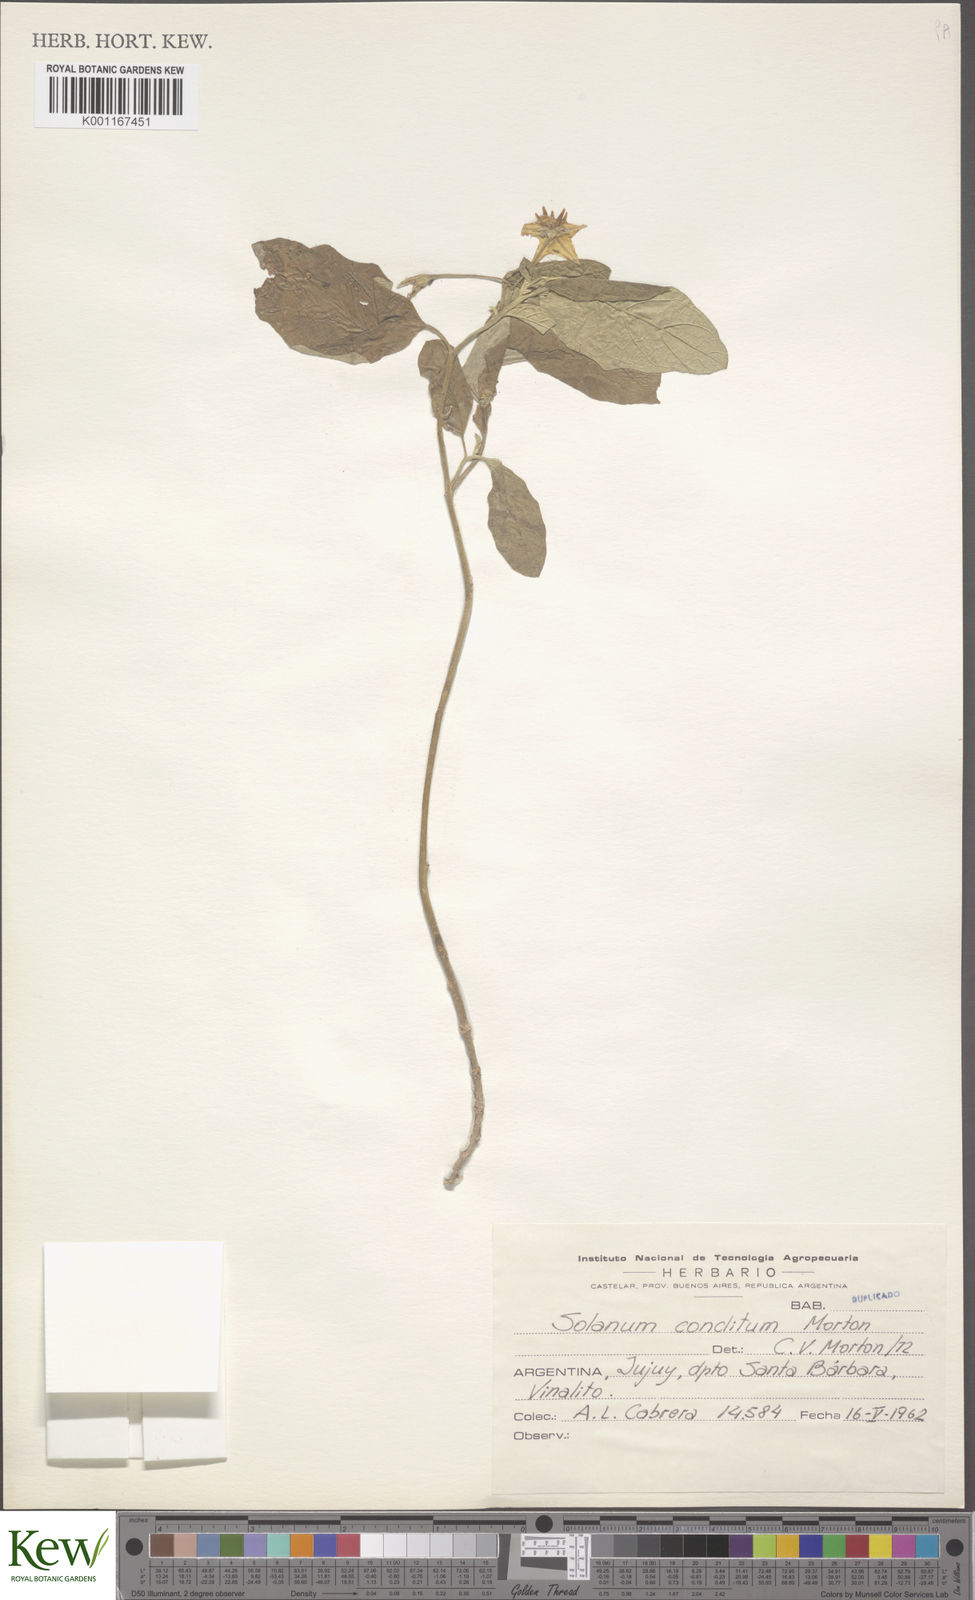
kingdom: Plantae
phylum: Tracheophyta
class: Magnoliopsida
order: Solanales
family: Solanaceae
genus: Solanum
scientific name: Solanum aridum
